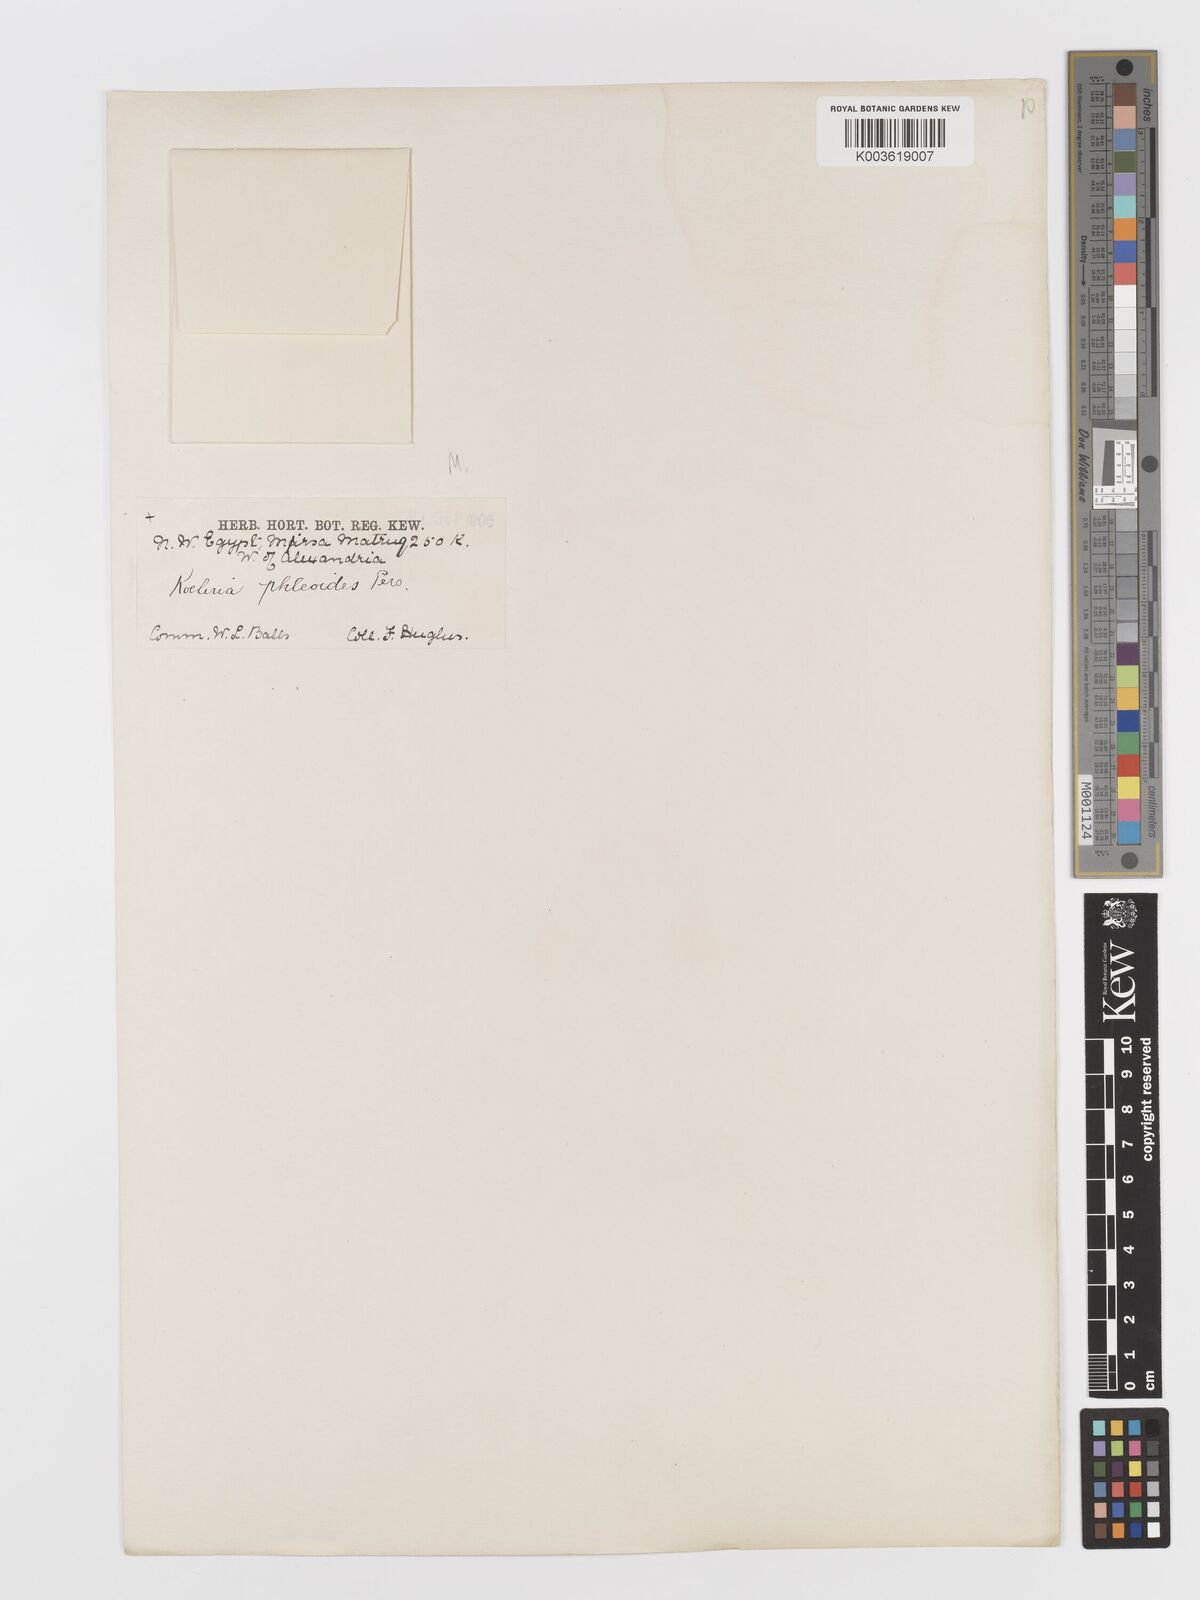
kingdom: Plantae
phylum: Tracheophyta
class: Liliopsida
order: Poales
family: Poaceae
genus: Rostraria
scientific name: Rostraria cristata
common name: Mediterranean hair-grass
